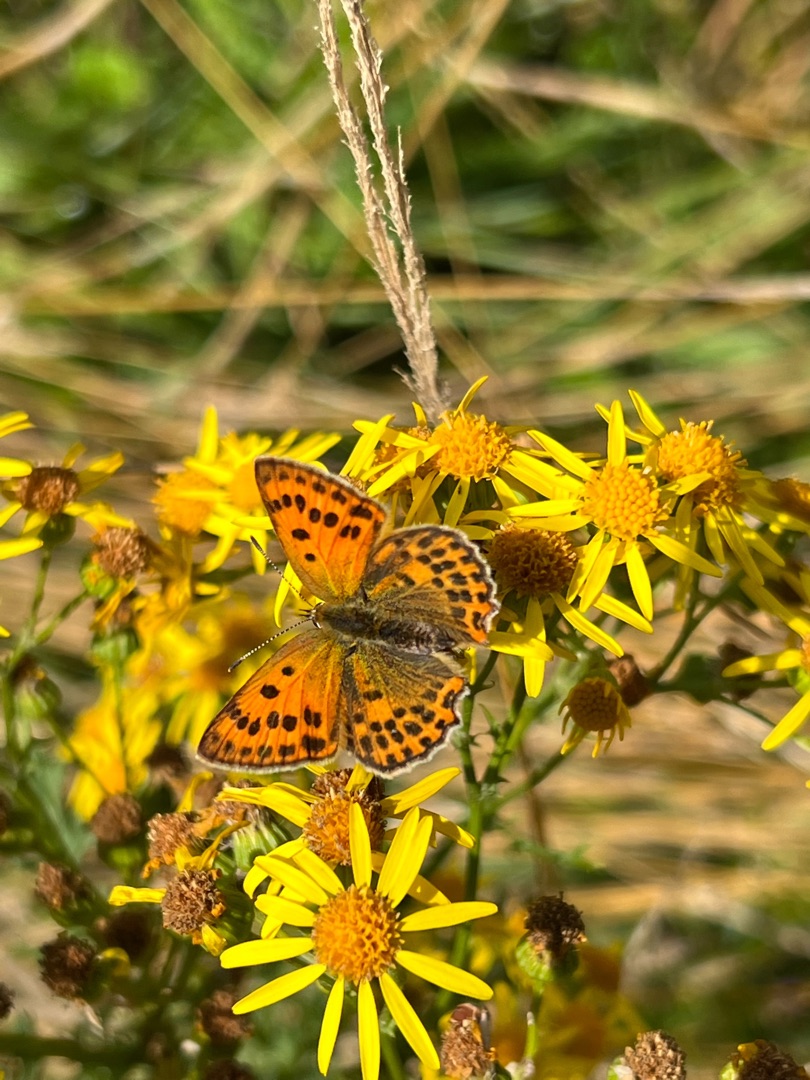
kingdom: Animalia
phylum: Arthropoda
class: Insecta
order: Lepidoptera
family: Lycaenidae
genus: Lycaena
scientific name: Lycaena virgaureae
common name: Dukatsommerfugl
